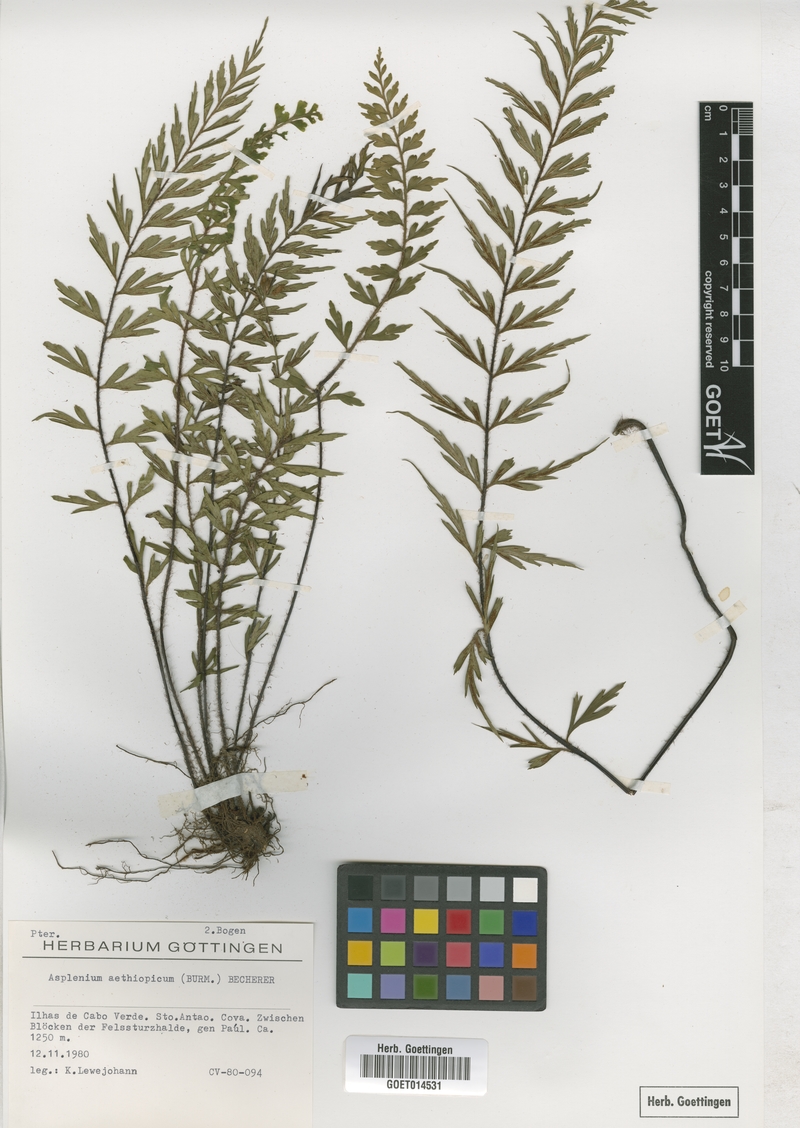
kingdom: Plantae
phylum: Tracheophyta
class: Polypodiopsida
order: Polypodiales
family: Aspleniaceae
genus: Asplenium
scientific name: Asplenium aethiopicum
